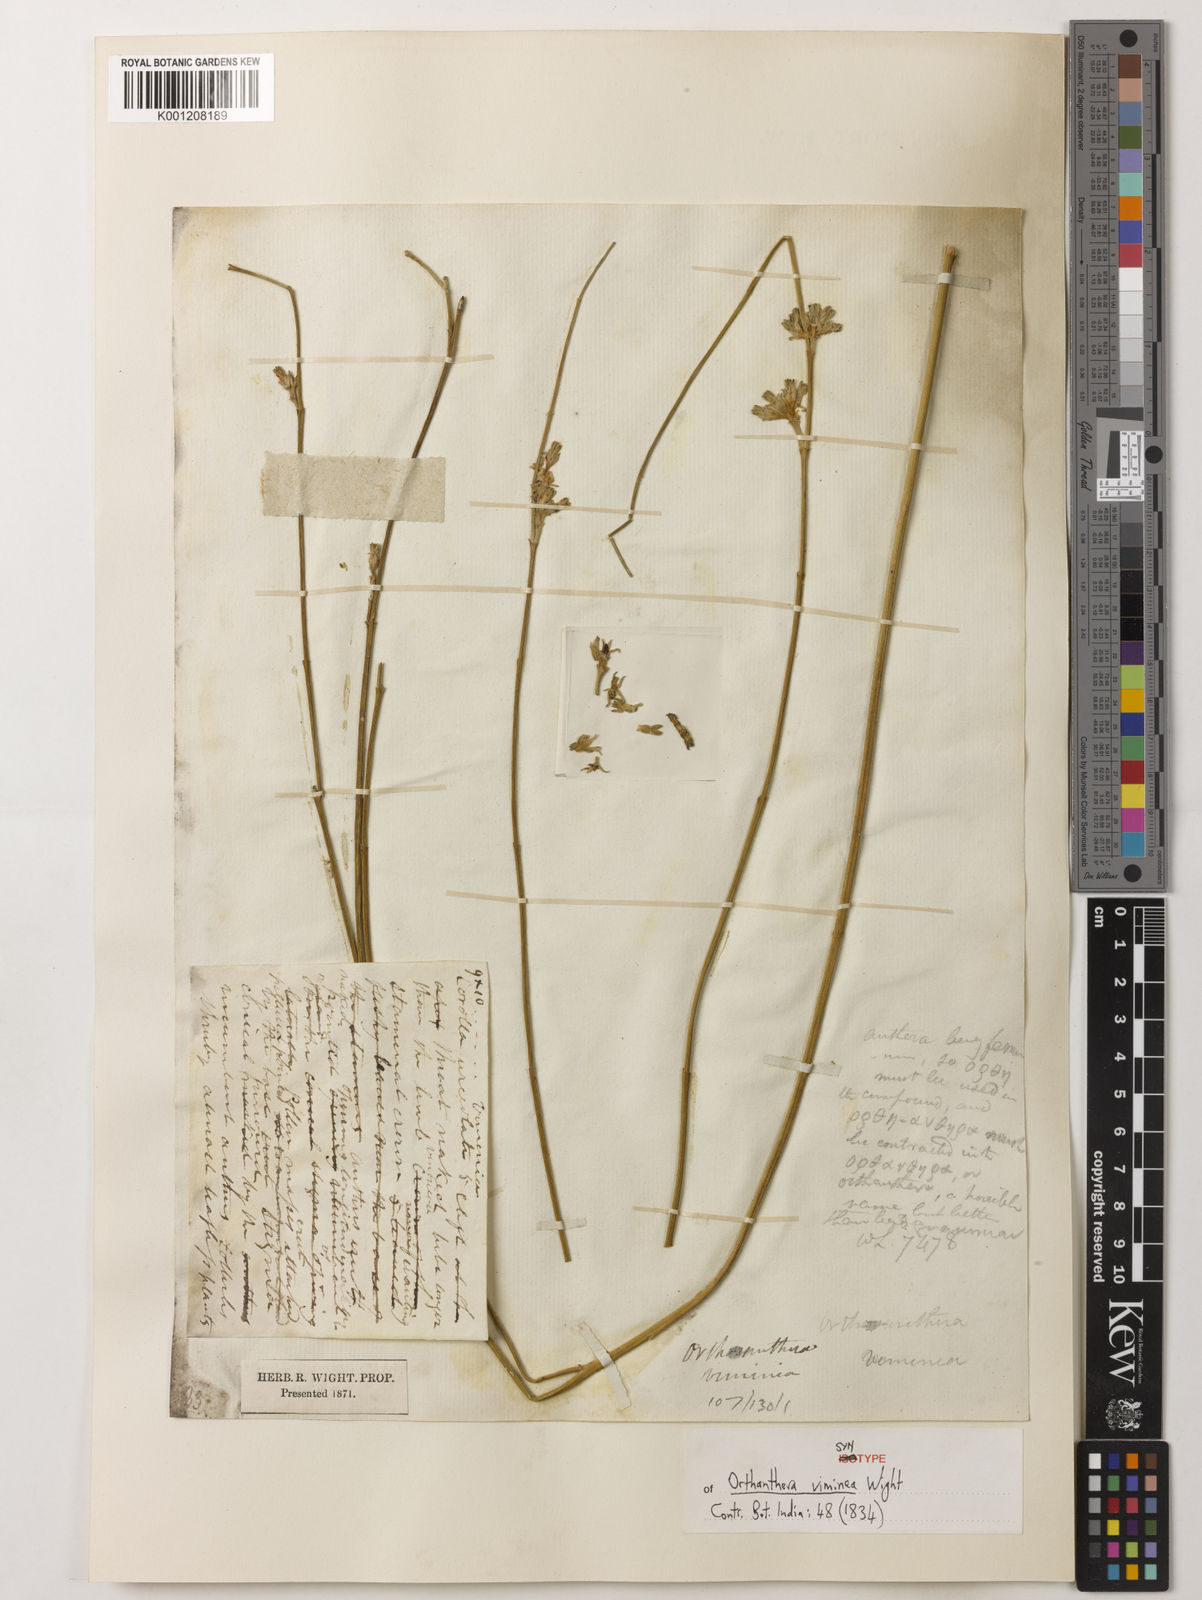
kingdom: Plantae
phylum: Tracheophyta
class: Magnoliopsida
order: Gentianales
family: Apocynaceae
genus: Orthanthera
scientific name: Orthanthera viminea
